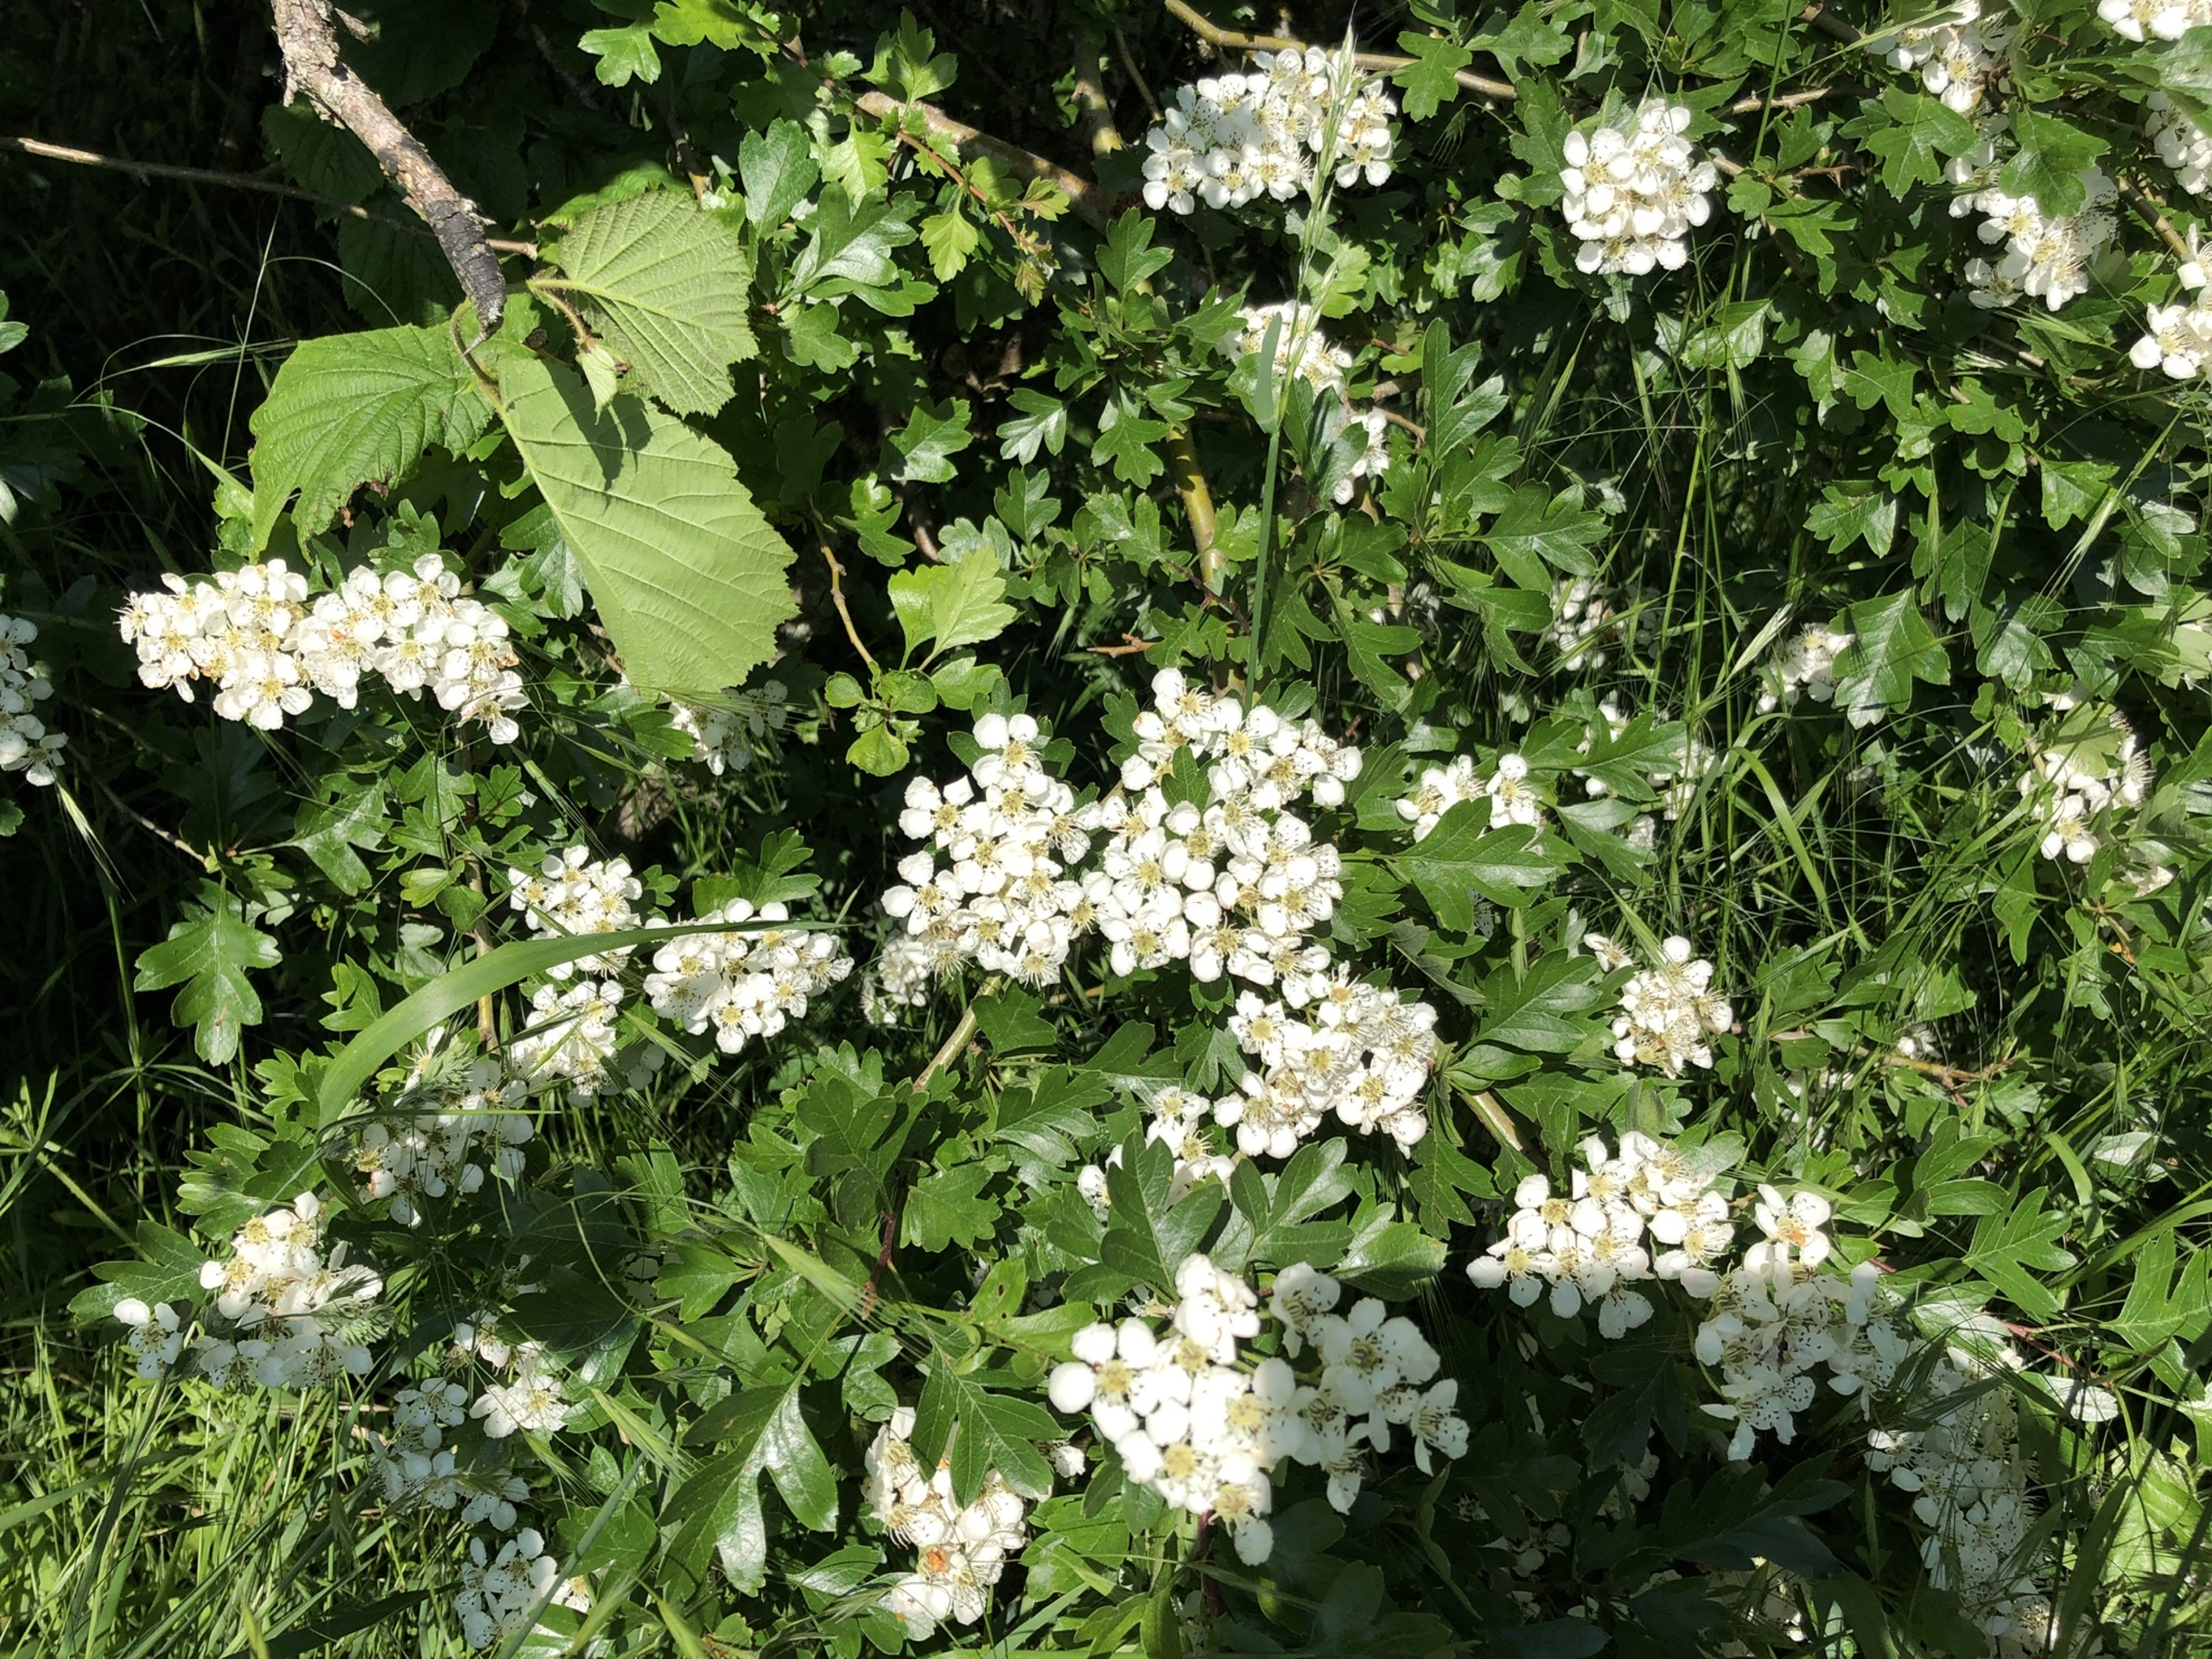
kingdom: Plantae
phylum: Tracheophyta
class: Magnoliopsida
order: Rosales
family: Rosaceae
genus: Crataegus
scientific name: Crataegus monogyna
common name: Engriflet hvidtjørn
